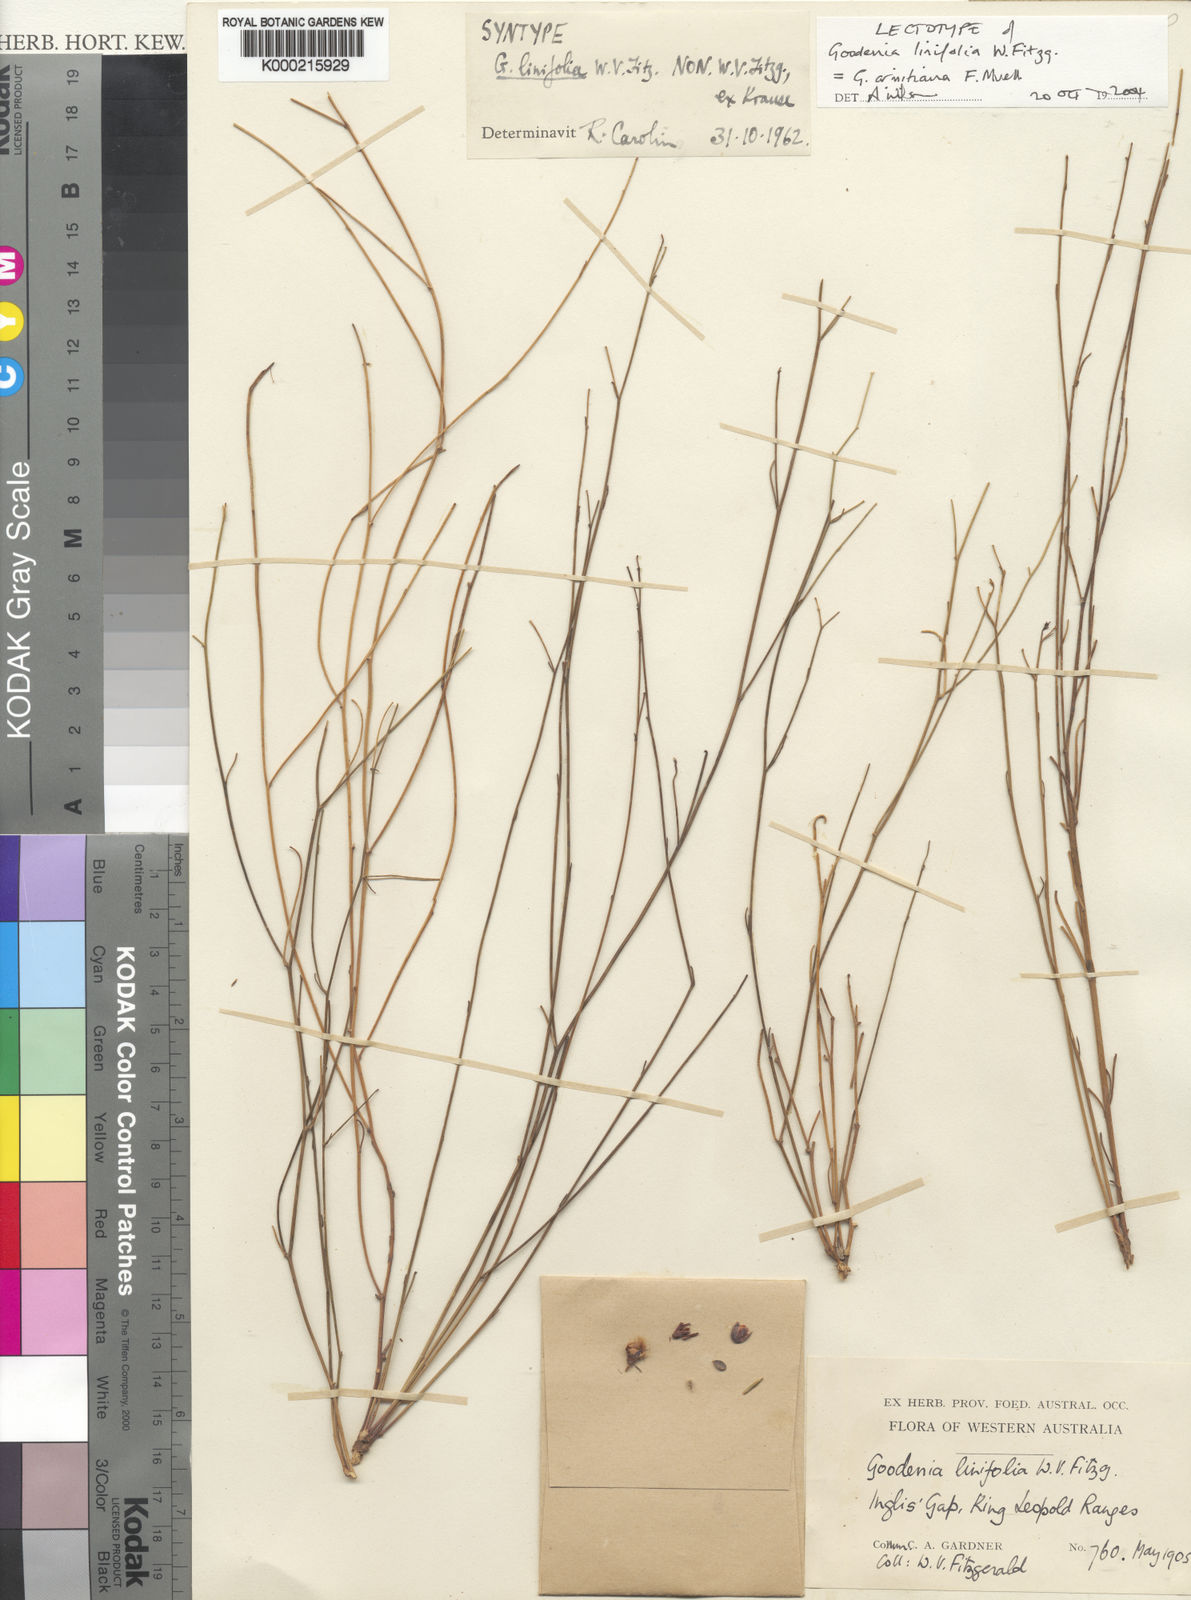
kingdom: Plantae
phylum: Tracheophyta
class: Magnoliopsida
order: Asterales
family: Goodeniaceae
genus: Goodenia
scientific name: Goodenia armitiana
